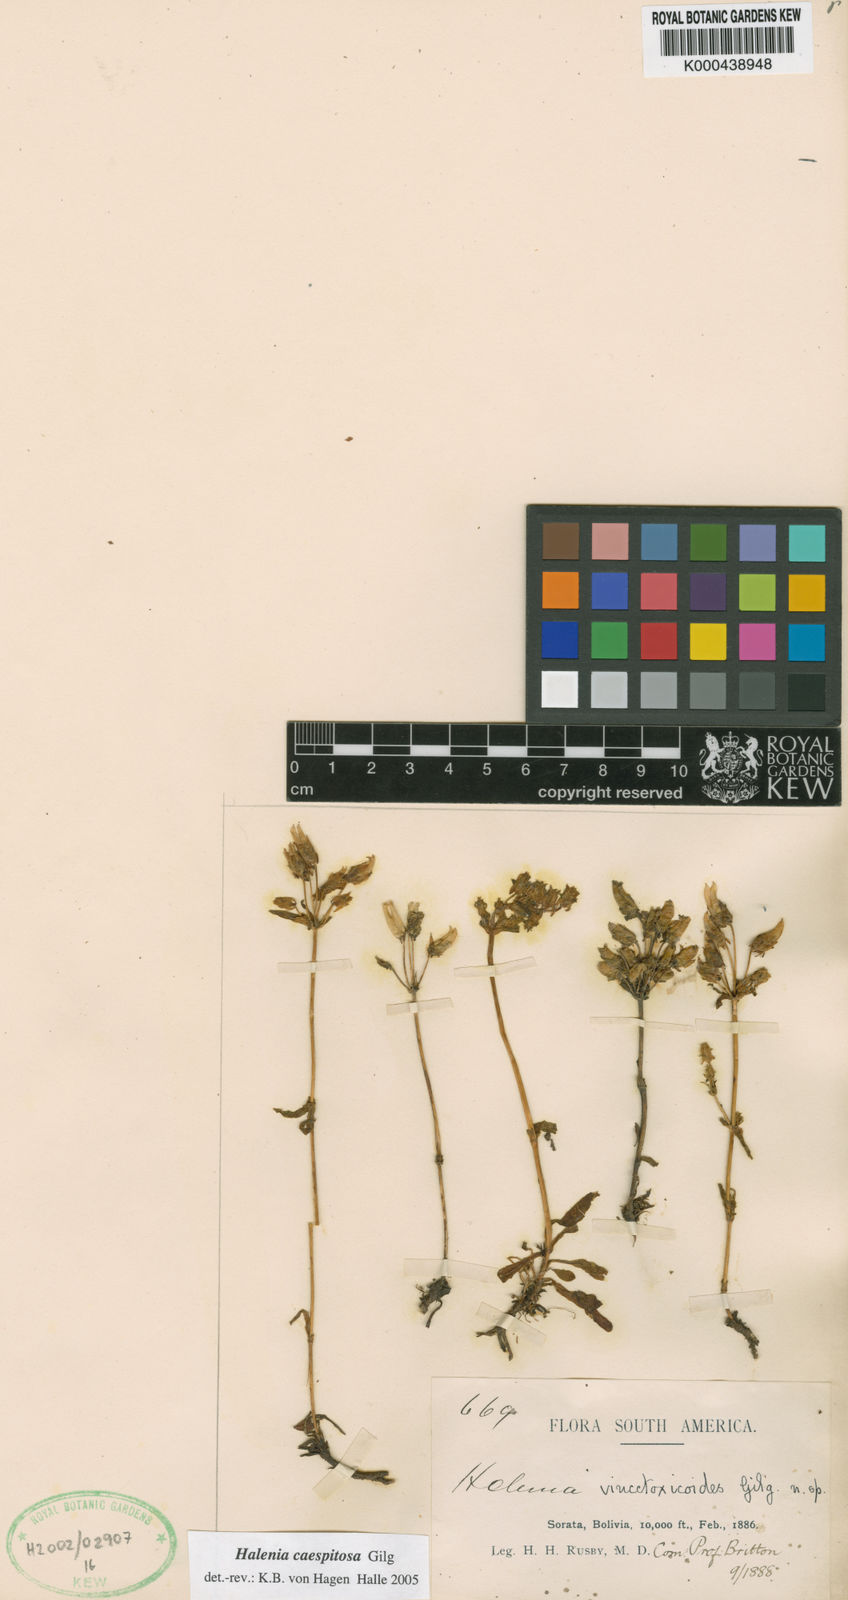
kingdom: Plantae
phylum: Tracheophyta
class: Magnoliopsida
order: Gentianales
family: Gentianaceae
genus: Halenia
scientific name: Halenia caespitosa
